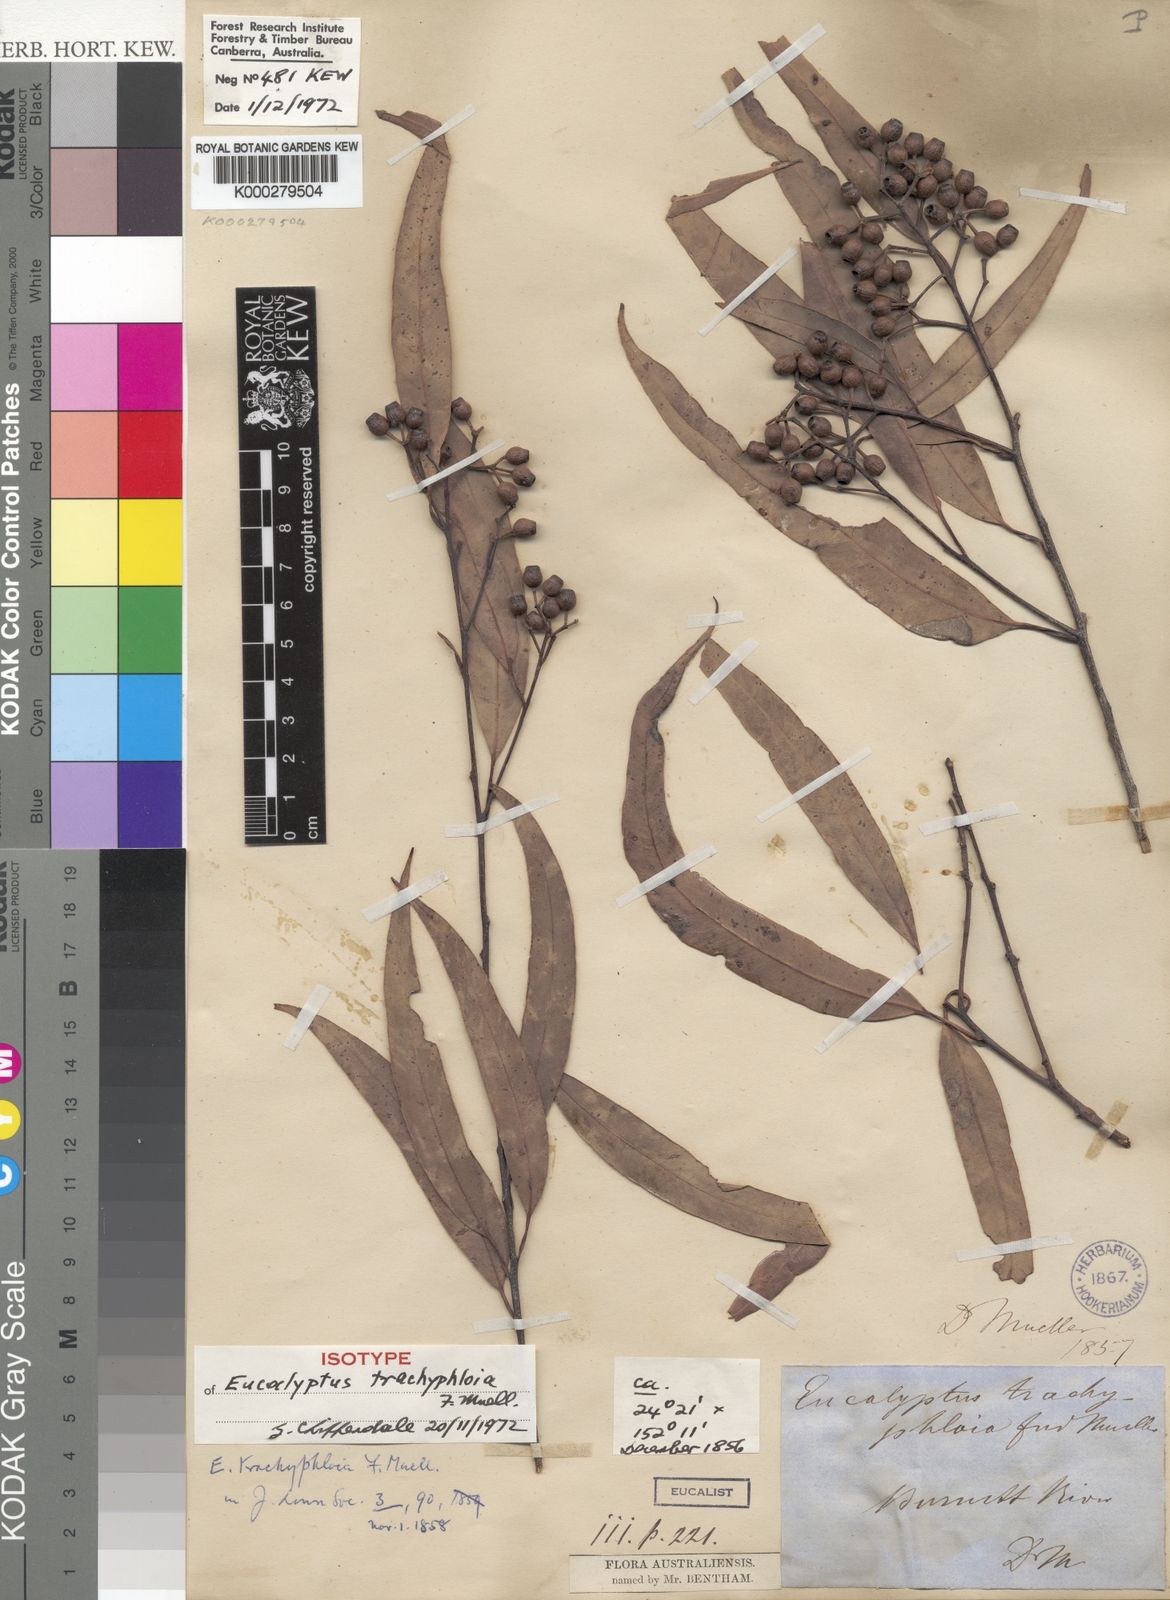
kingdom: Plantae
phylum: Tracheophyta
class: Magnoliopsida
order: Myrtales
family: Myrtaceae
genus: Corymbia
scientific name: Corymbia trachyphloia
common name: Brown-bloodwood
